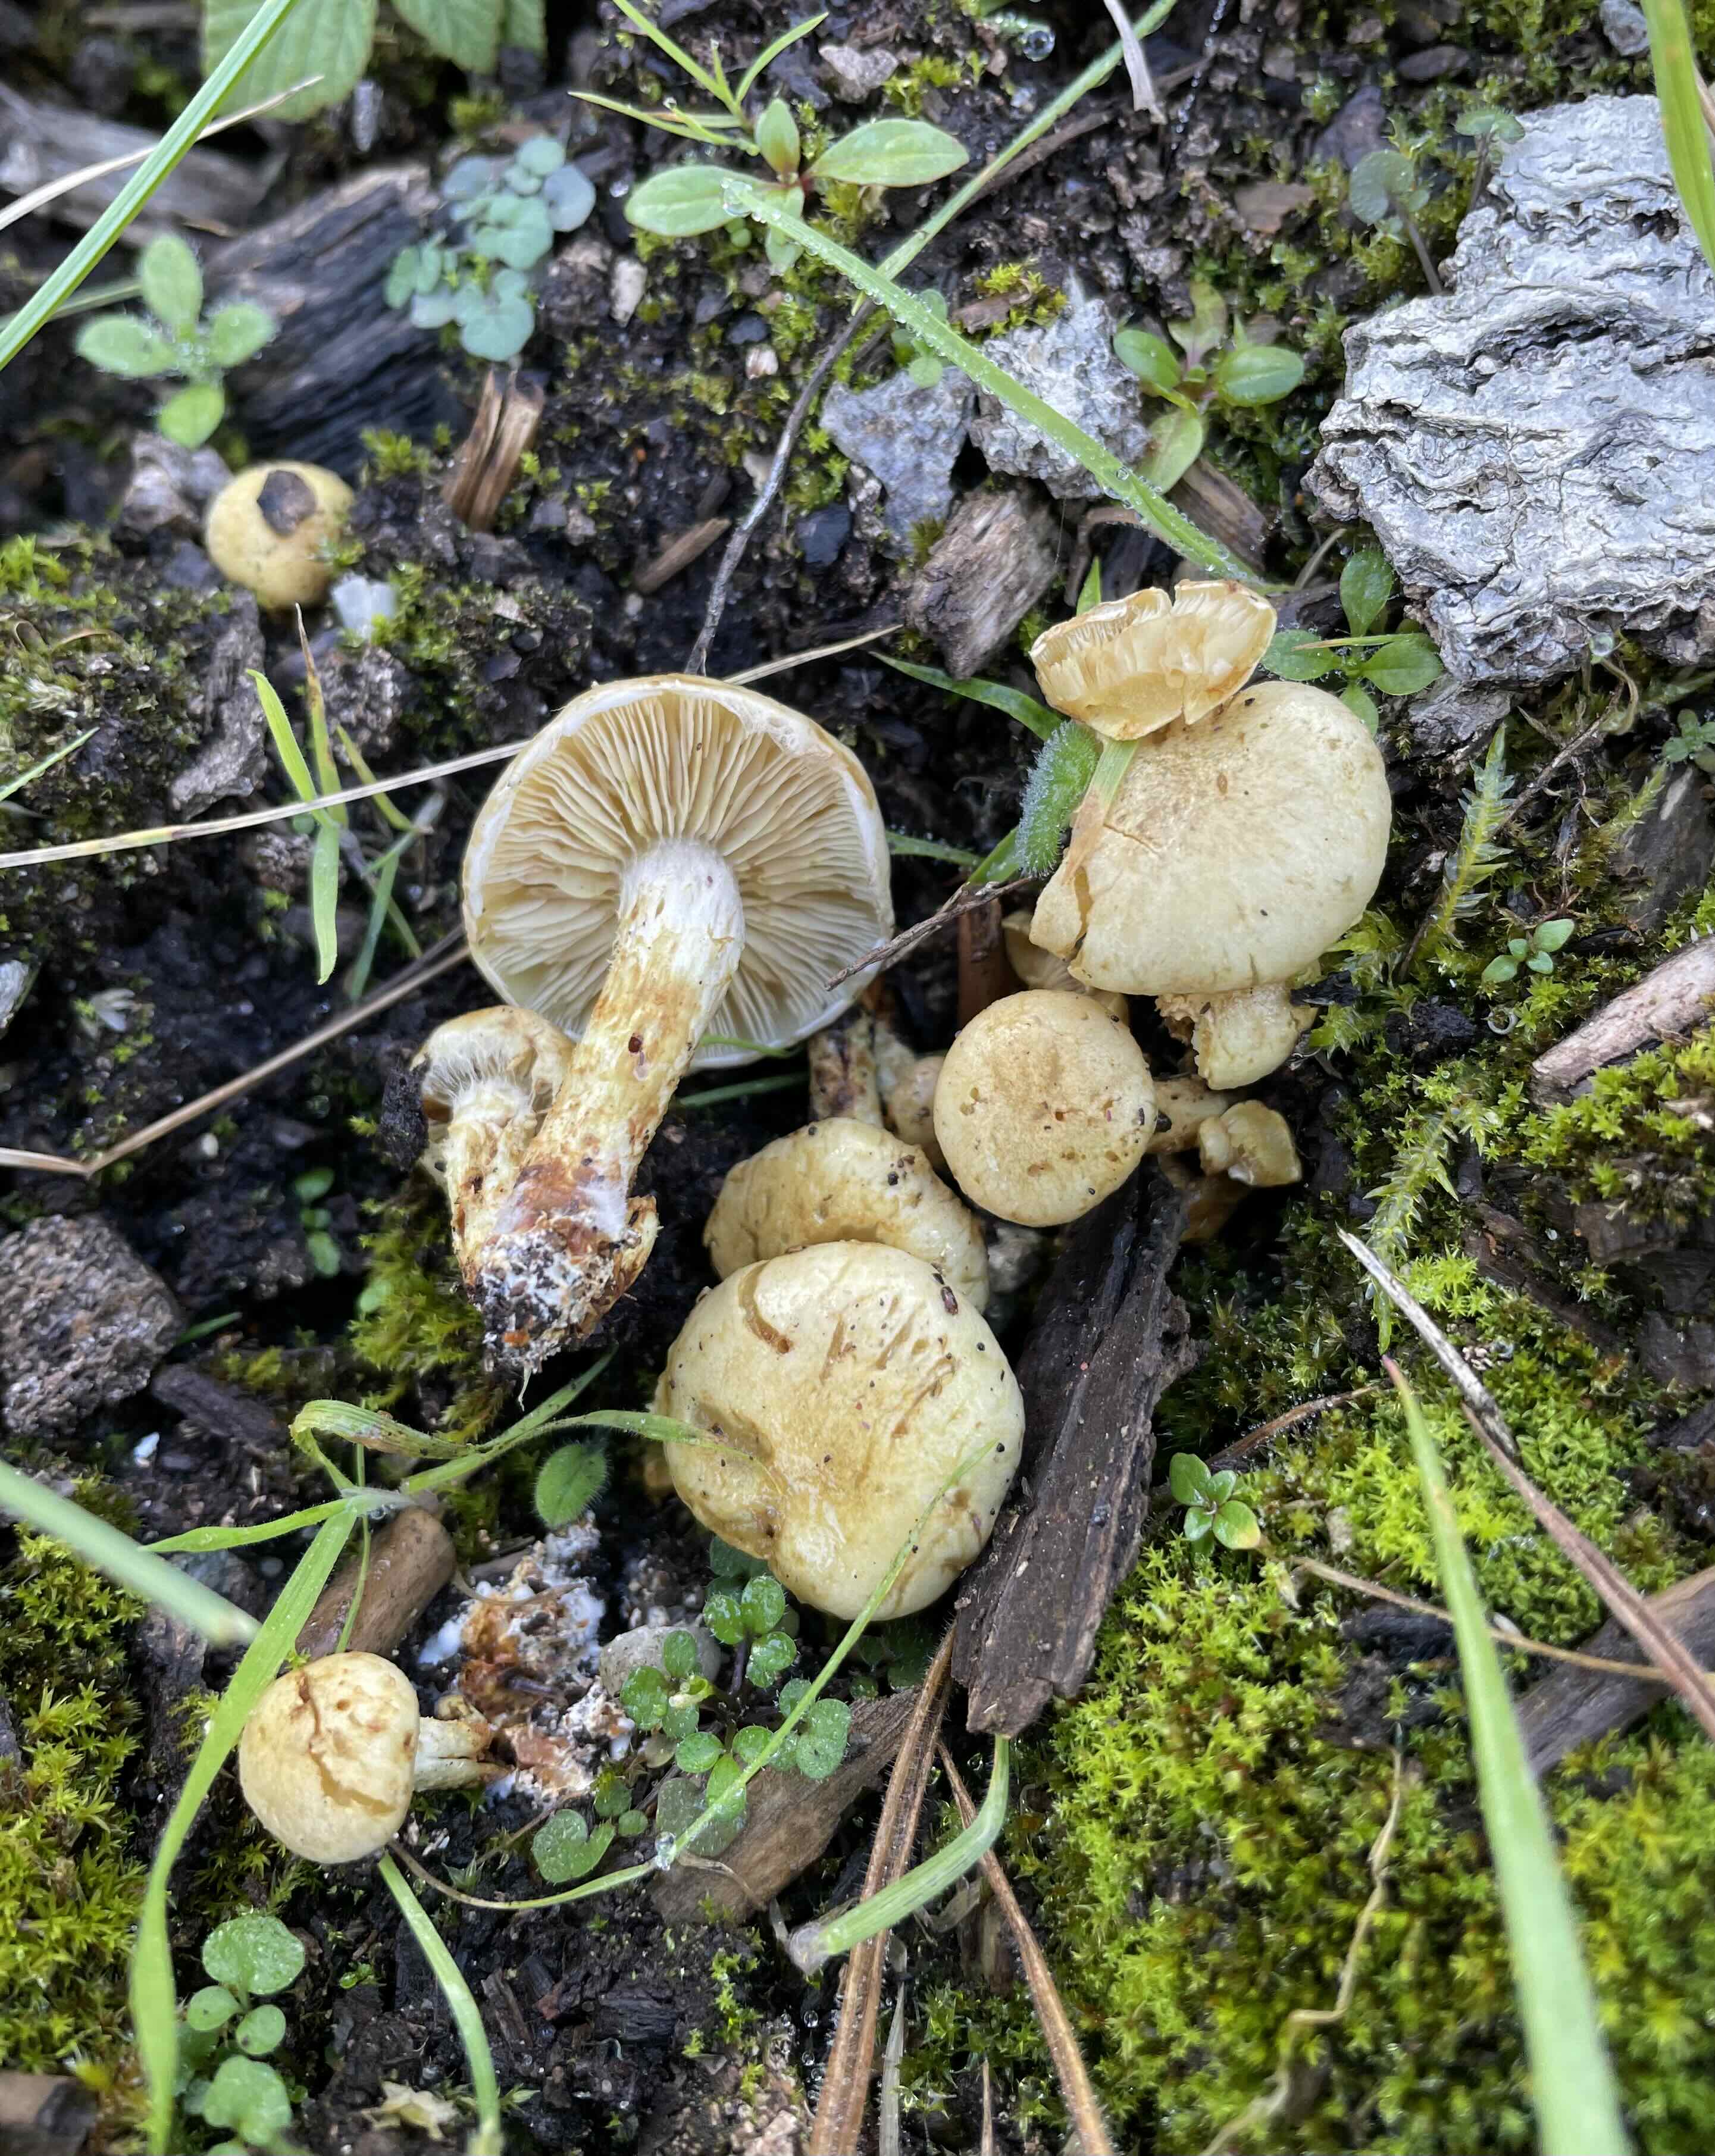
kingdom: Fungi
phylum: Basidiomycota
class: Agaricomycetes
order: Agaricales
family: Strophariaceae
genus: Pholiota
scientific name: Pholiota gummosa
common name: grøngul skælhat
